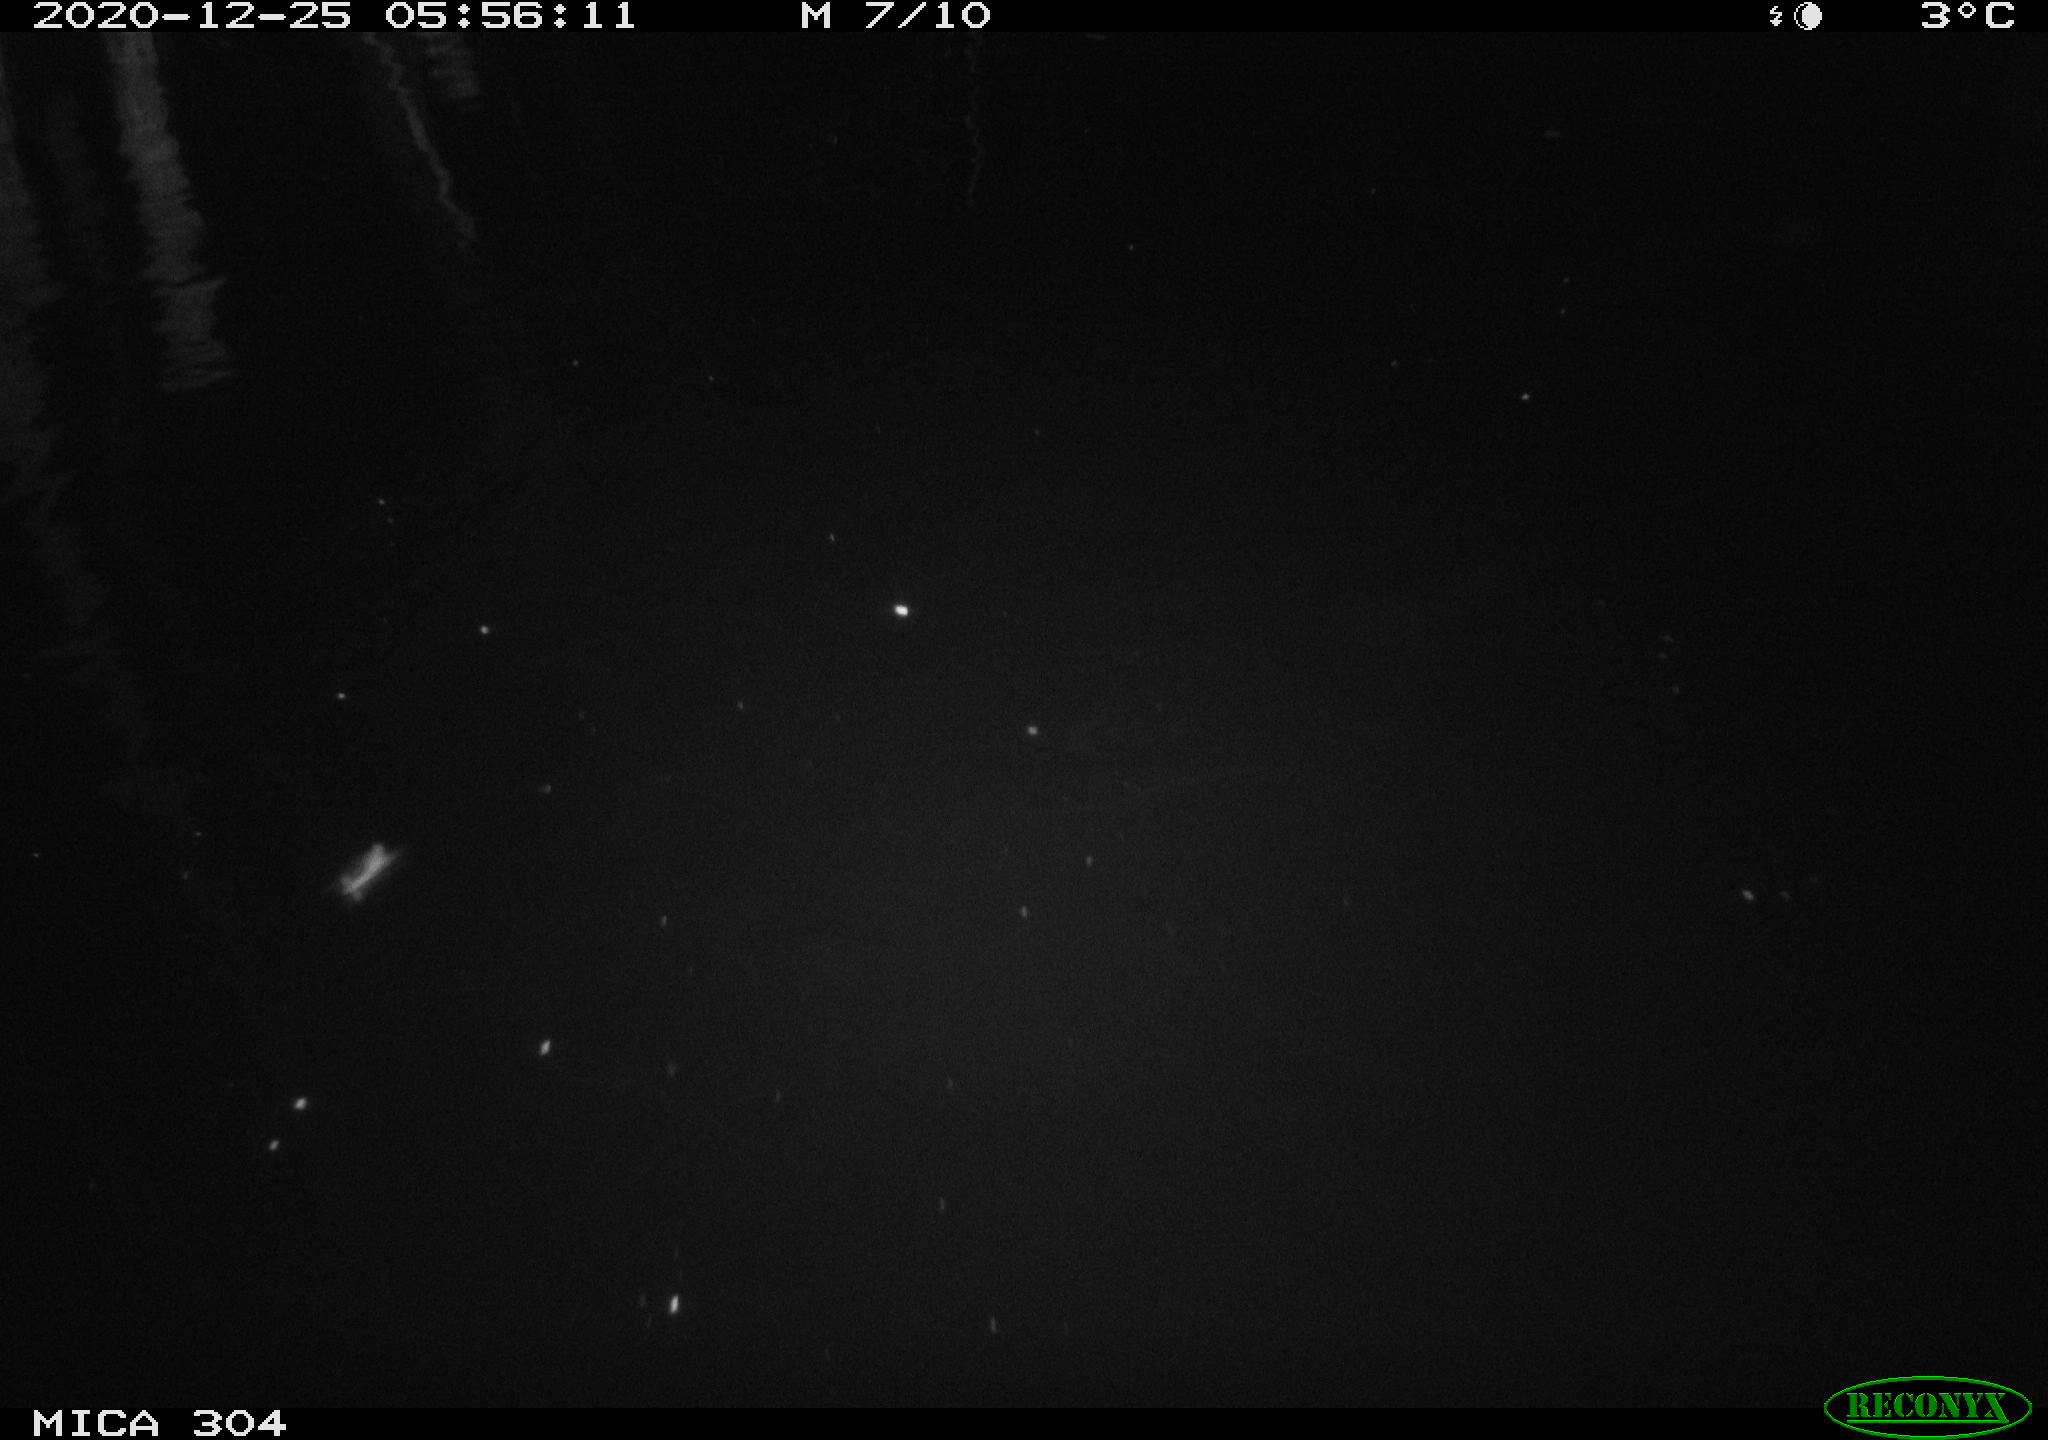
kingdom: Animalia
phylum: Chordata
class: Mammalia
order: Rodentia
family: Muridae
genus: Rattus
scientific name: Rattus norvegicus
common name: Brown rat
